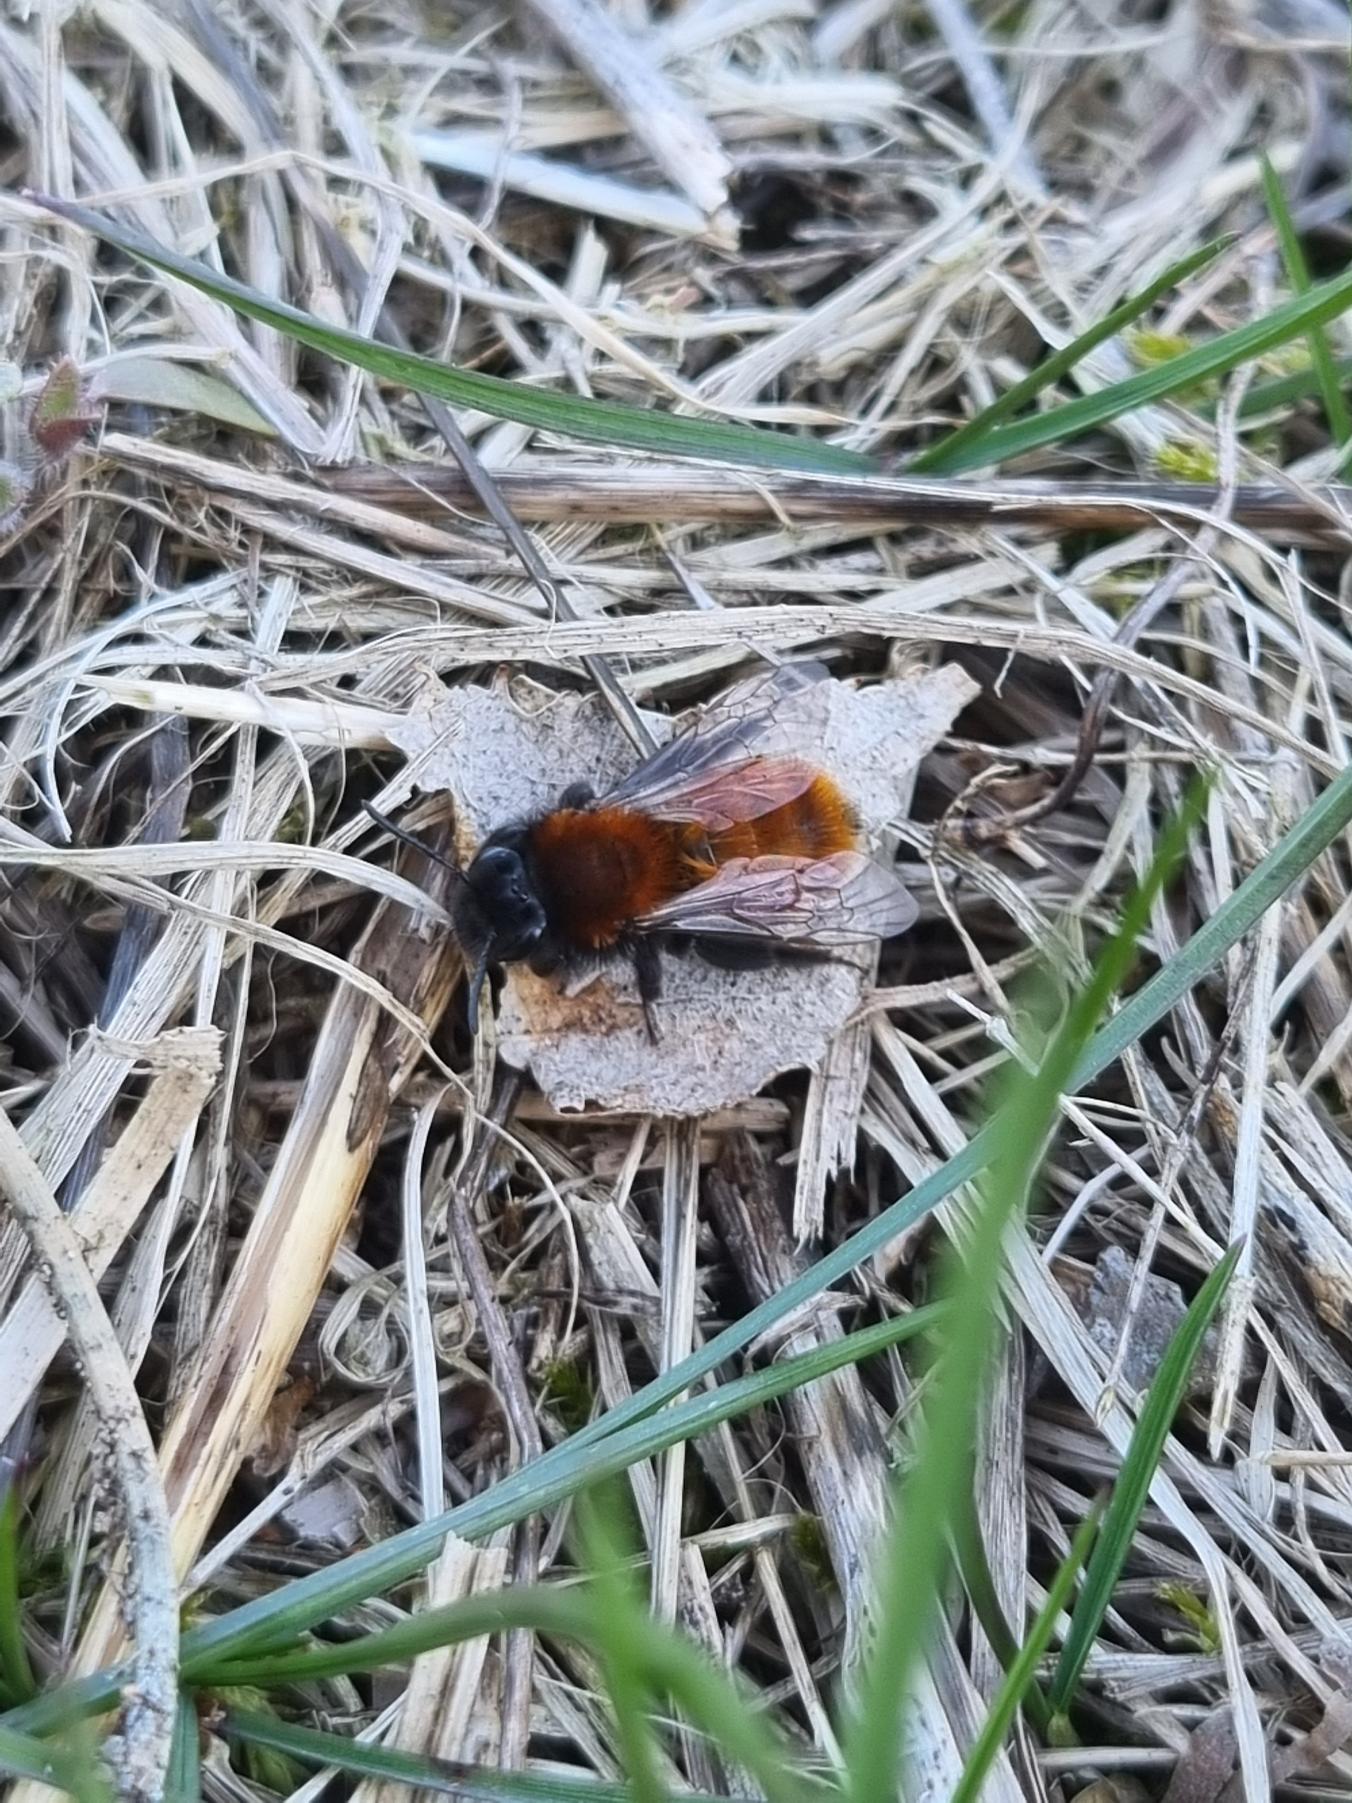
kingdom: Animalia
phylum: Arthropoda
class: Insecta
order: Hymenoptera
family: Andrenidae
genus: Andrena
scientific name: Andrena fulva
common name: Rødpelset jordbi
